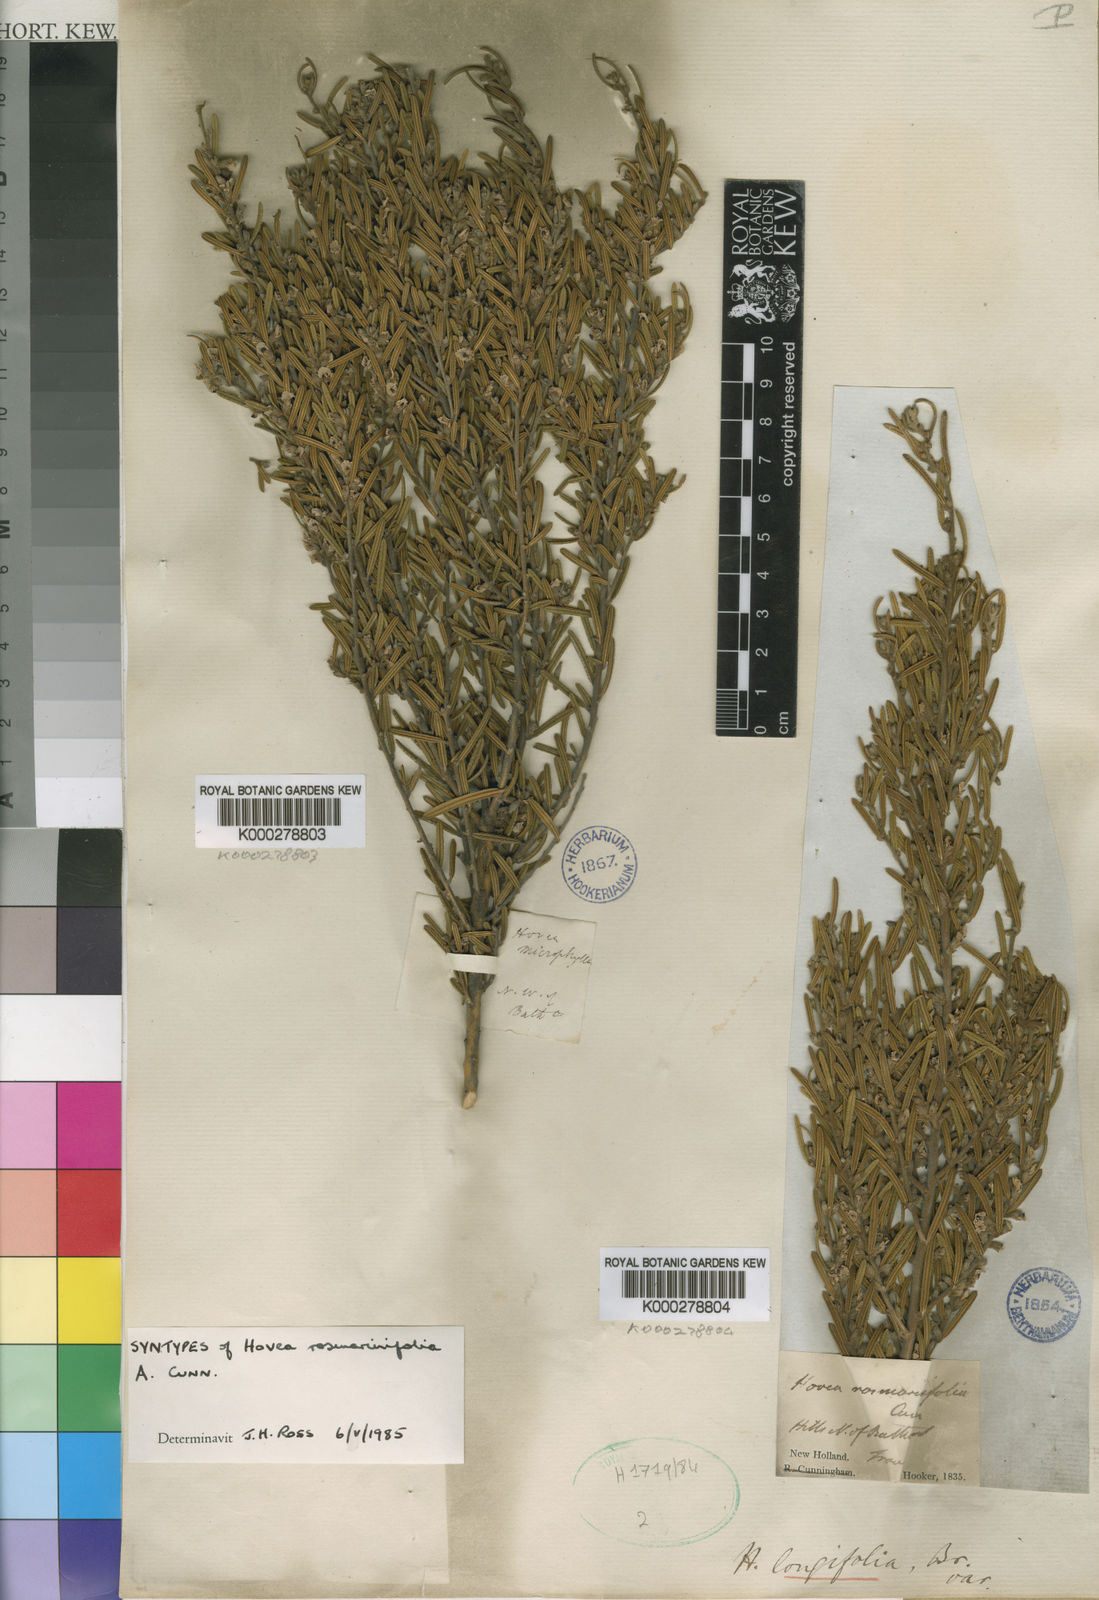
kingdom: Plantae
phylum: Tracheophyta
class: Magnoliopsida
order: Fabales
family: Fabaceae
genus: Hovea
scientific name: Hovea rosmarinifolia
